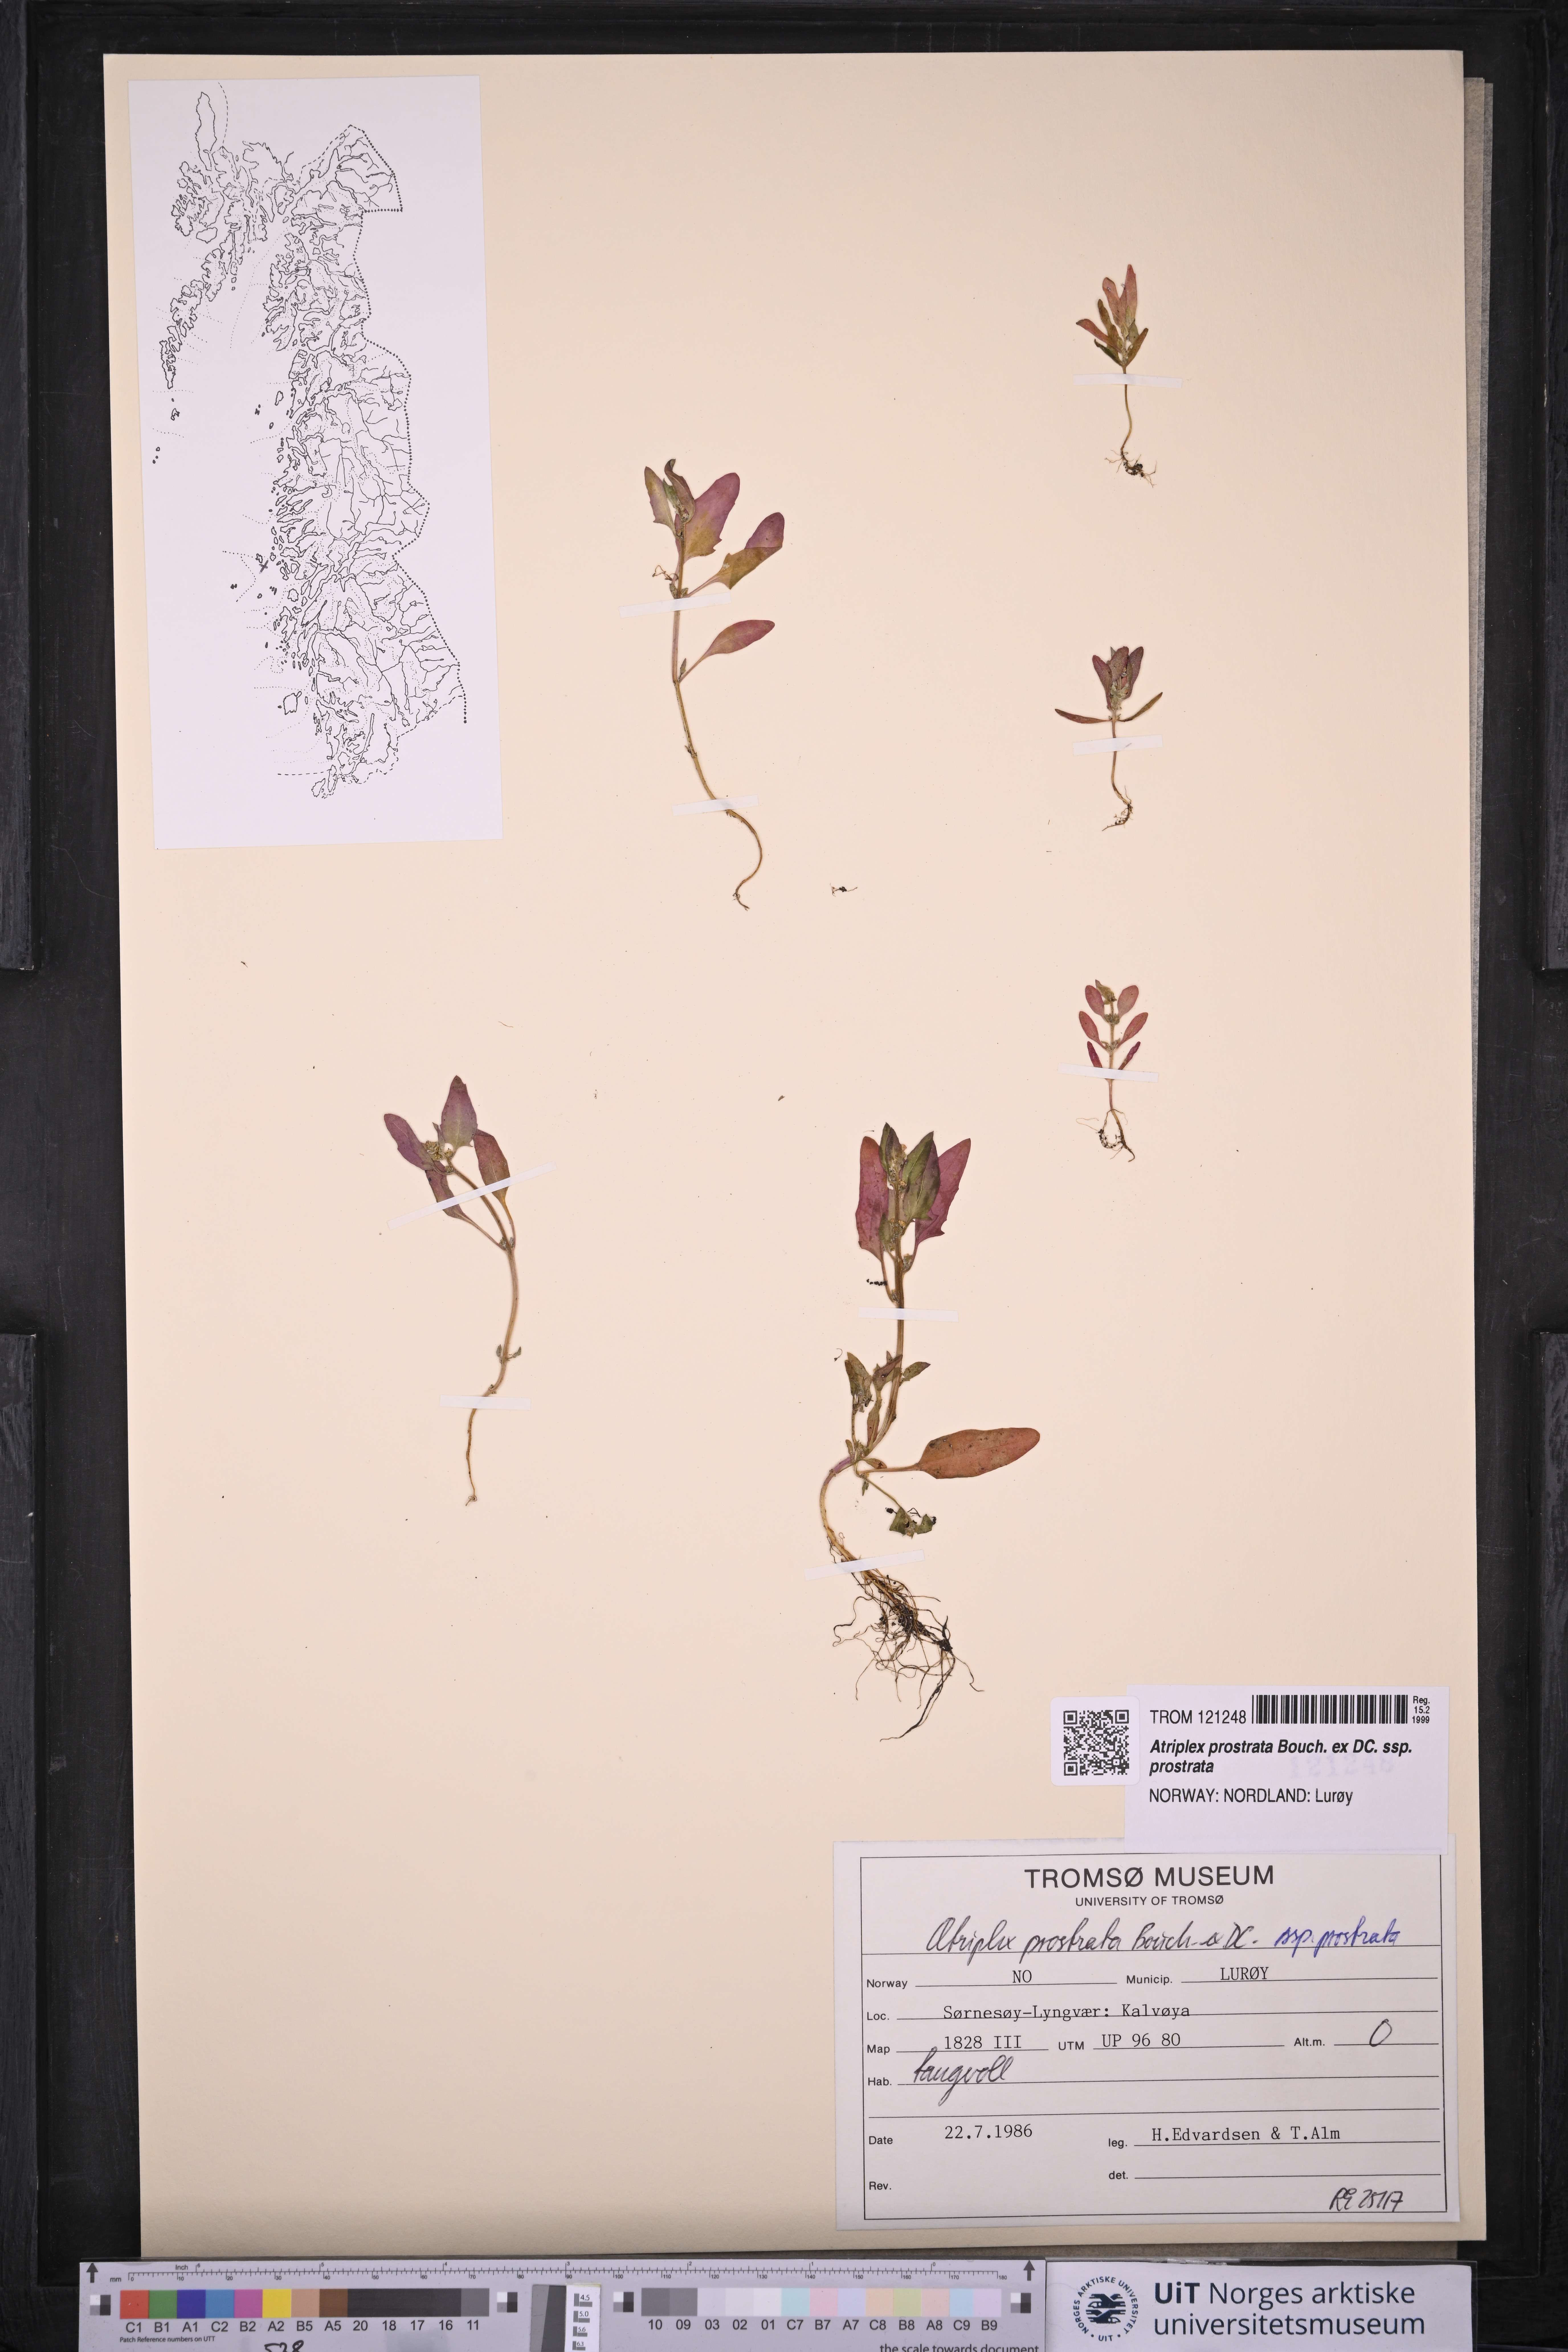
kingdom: Plantae
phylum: Tracheophyta
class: Magnoliopsida
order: Caryophyllales
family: Amaranthaceae
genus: Atriplex
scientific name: Atriplex prostrata
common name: Spear-leaved orache
